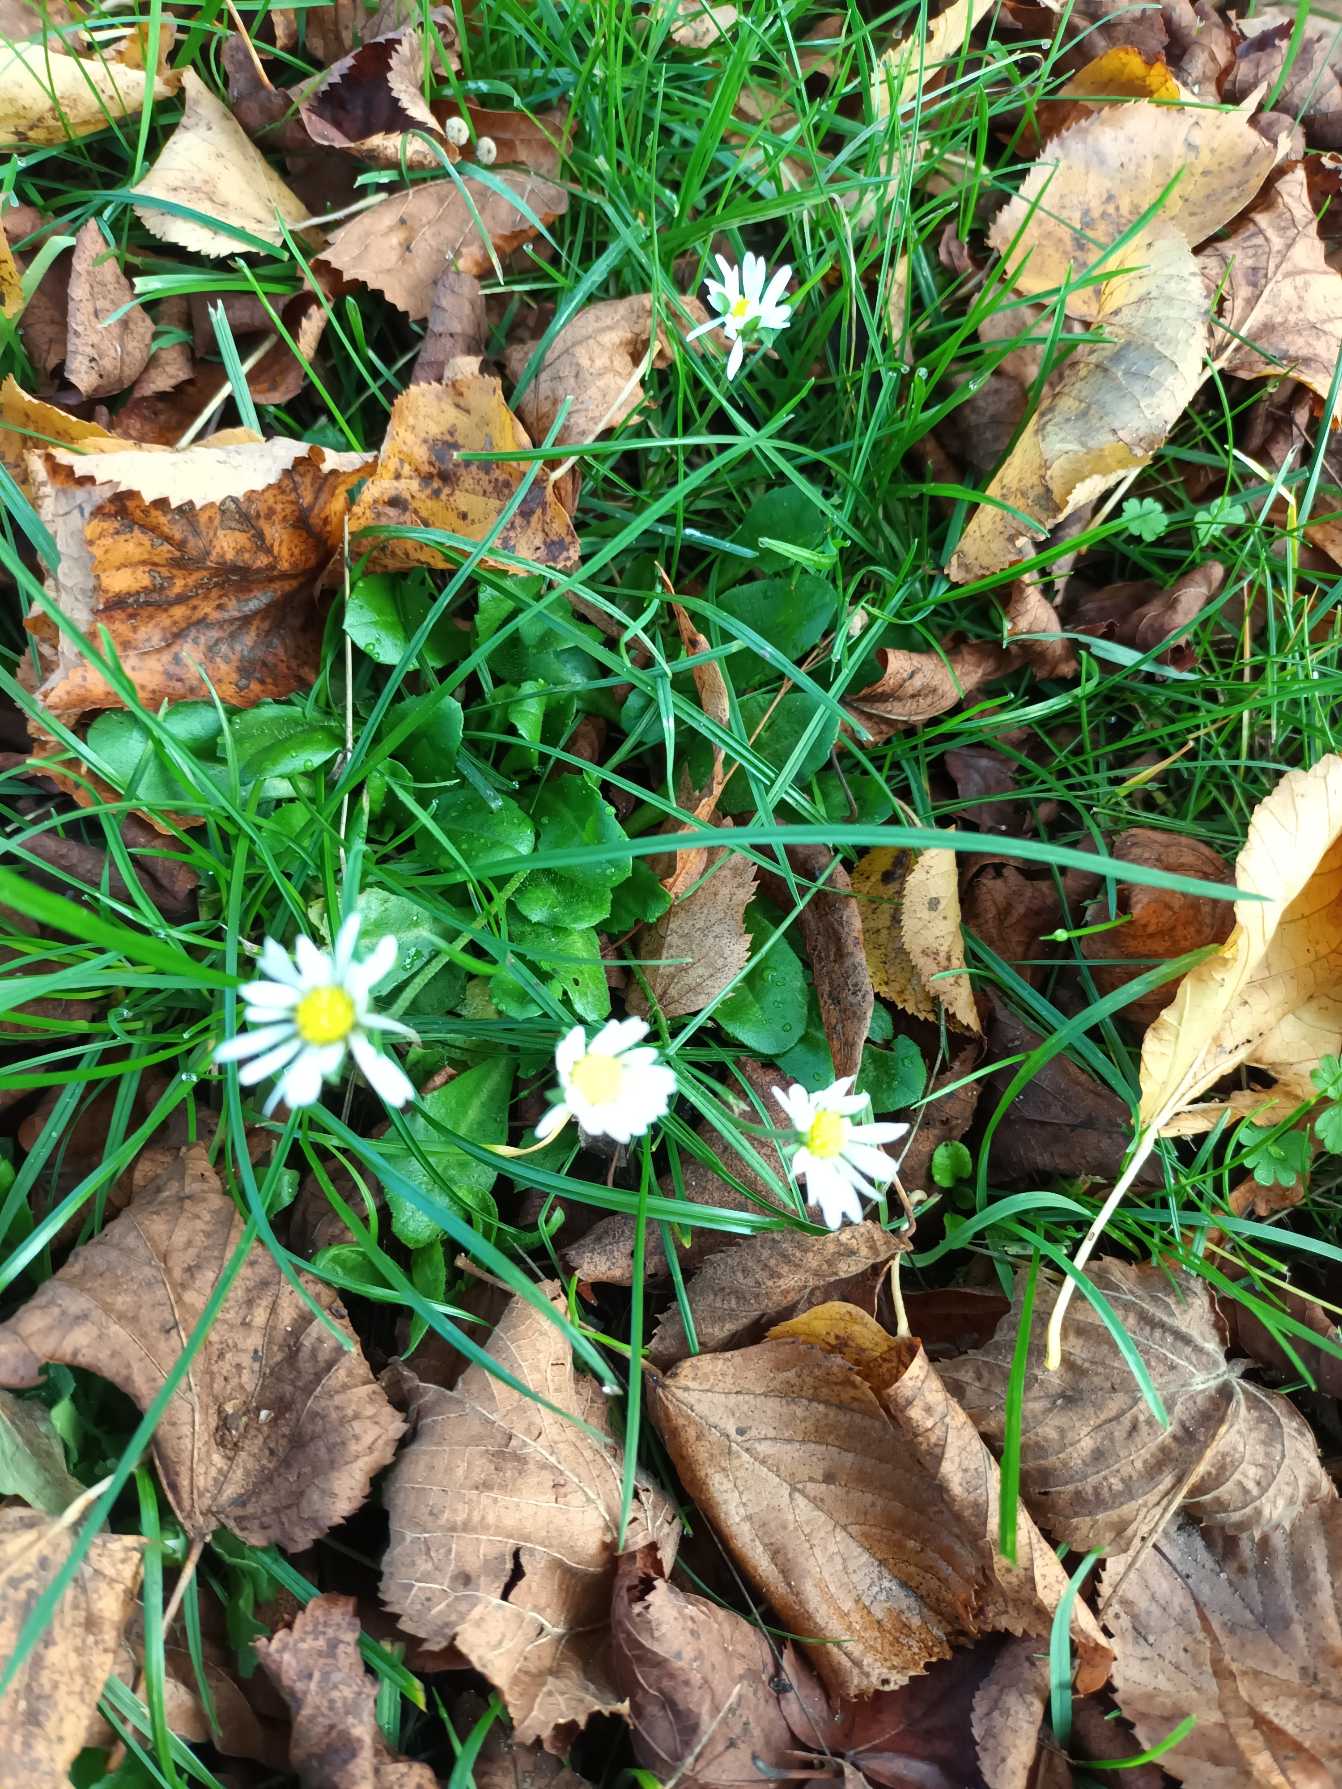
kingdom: Plantae
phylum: Tracheophyta
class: Magnoliopsida
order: Asterales
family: Asteraceae
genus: Bellis
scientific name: Bellis perennis
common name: Tusindfryd
